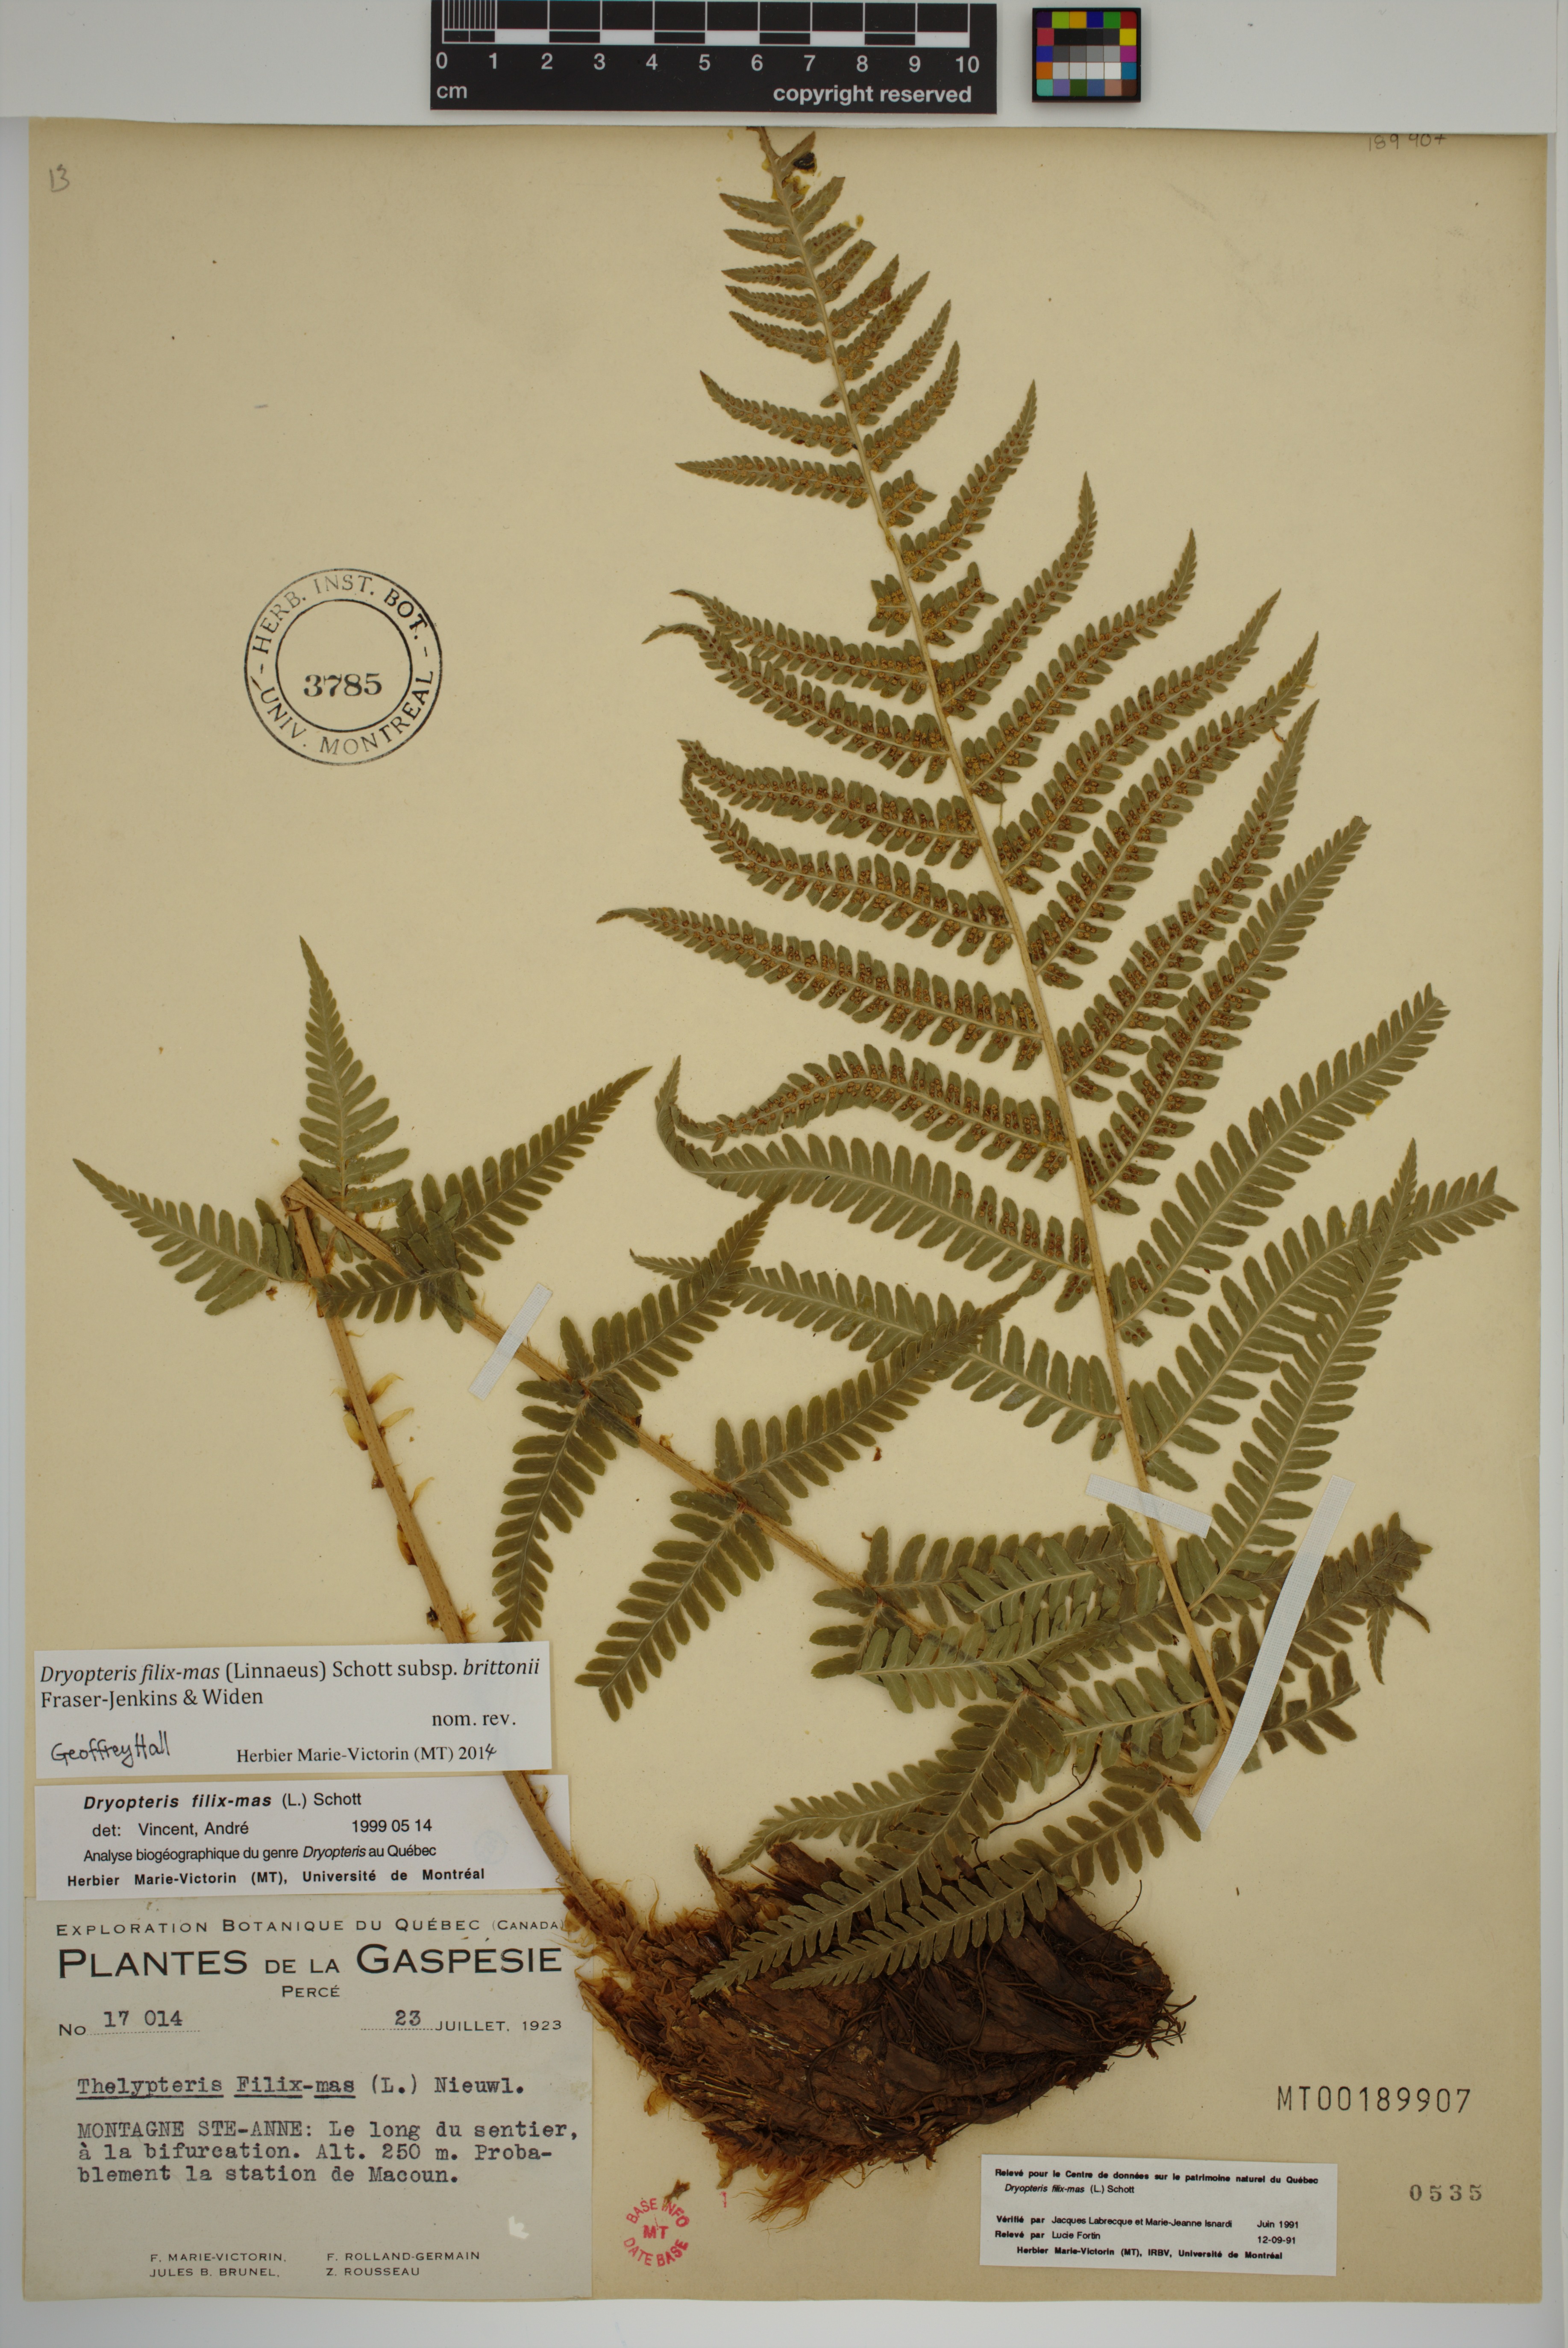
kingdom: Plantae
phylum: Tracheophyta
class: Polypodiopsida
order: Polypodiales
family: Dryopteridaceae
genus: Dryopteris
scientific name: Dryopteris filix-mas
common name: Male fern
